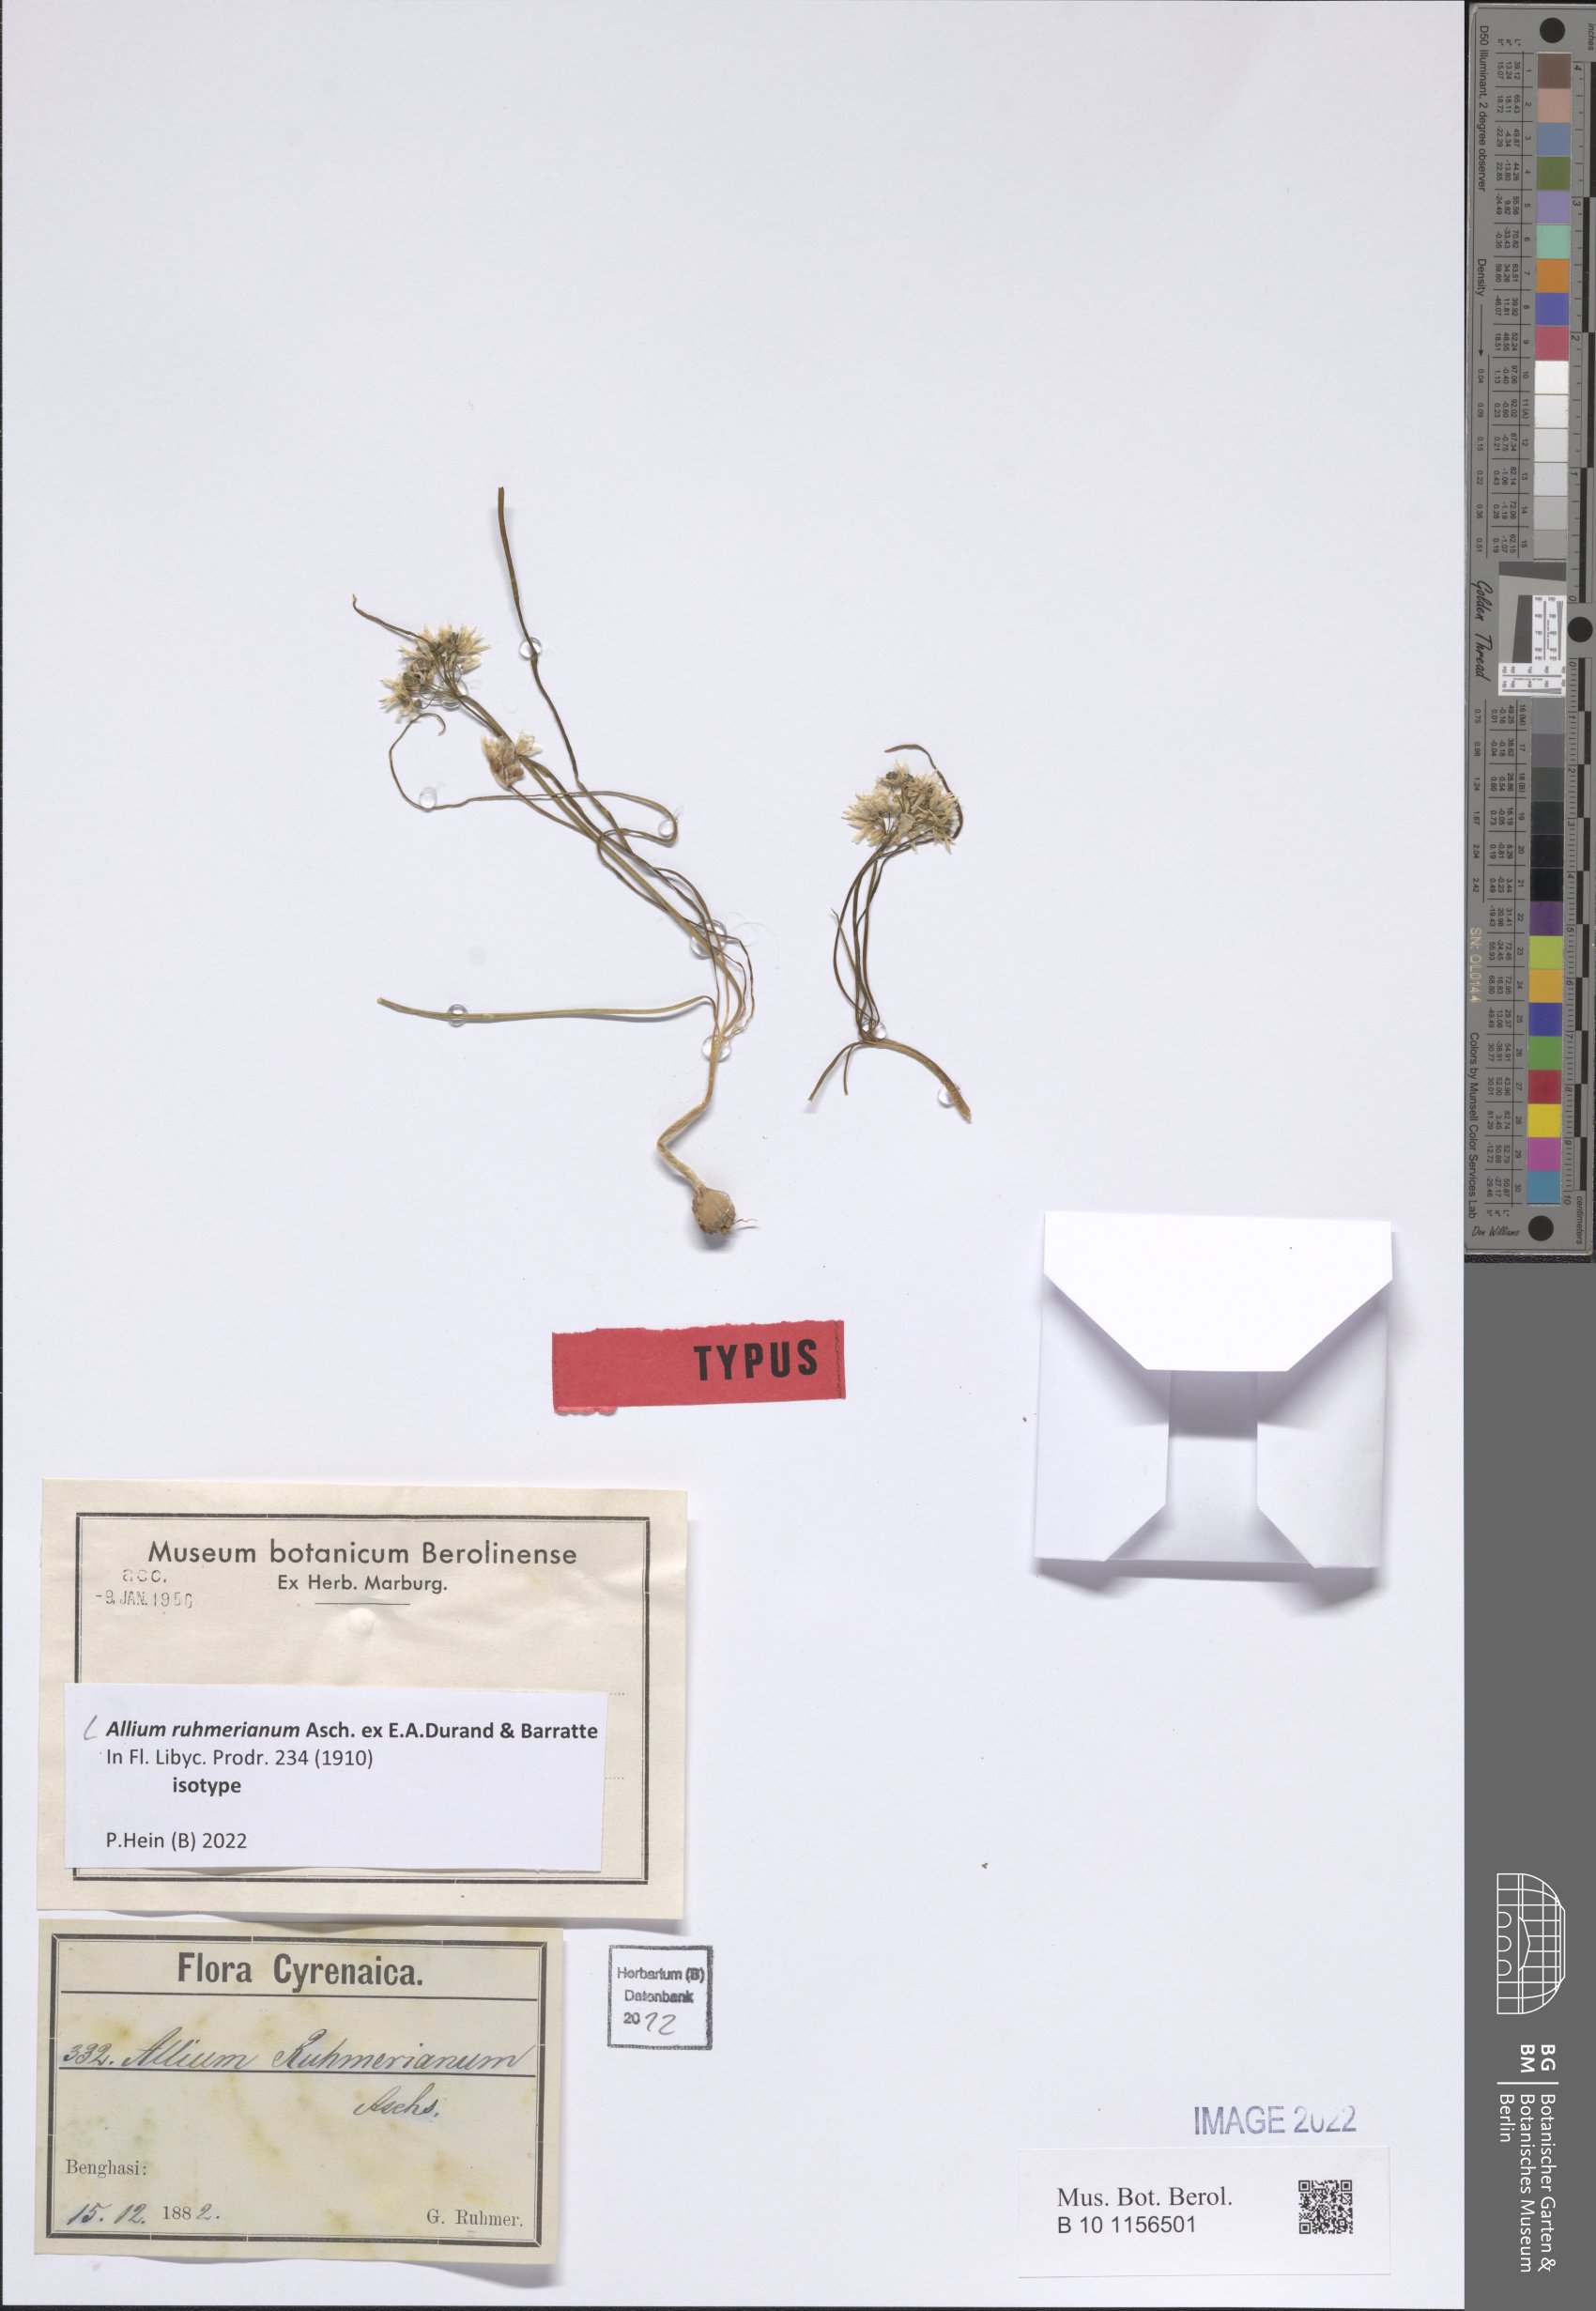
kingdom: Plantae
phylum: Tracheophyta
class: Liliopsida
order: Asparagales
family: Amaryllidaceae
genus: Allium
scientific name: Allium ruhmerianum
